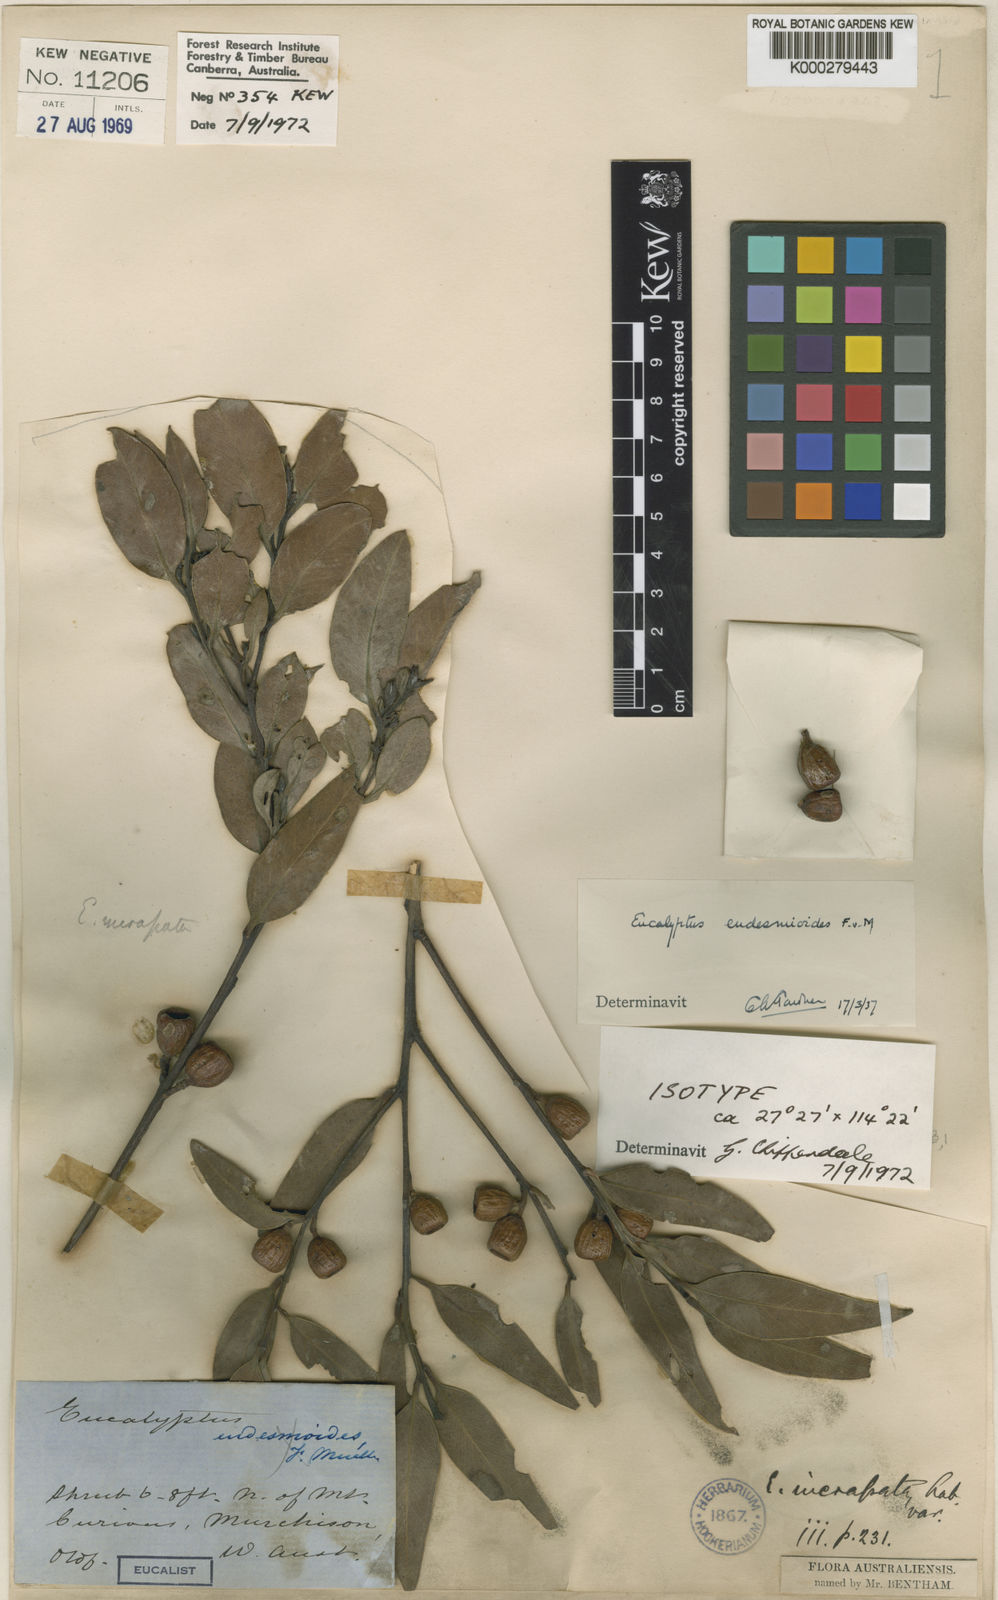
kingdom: Plantae
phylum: Tracheophyta
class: Magnoliopsida
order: Myrtales
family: Myrtaceae
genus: Eucalyptus
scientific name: Eucalyptus eudesmioides
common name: Desert gum
